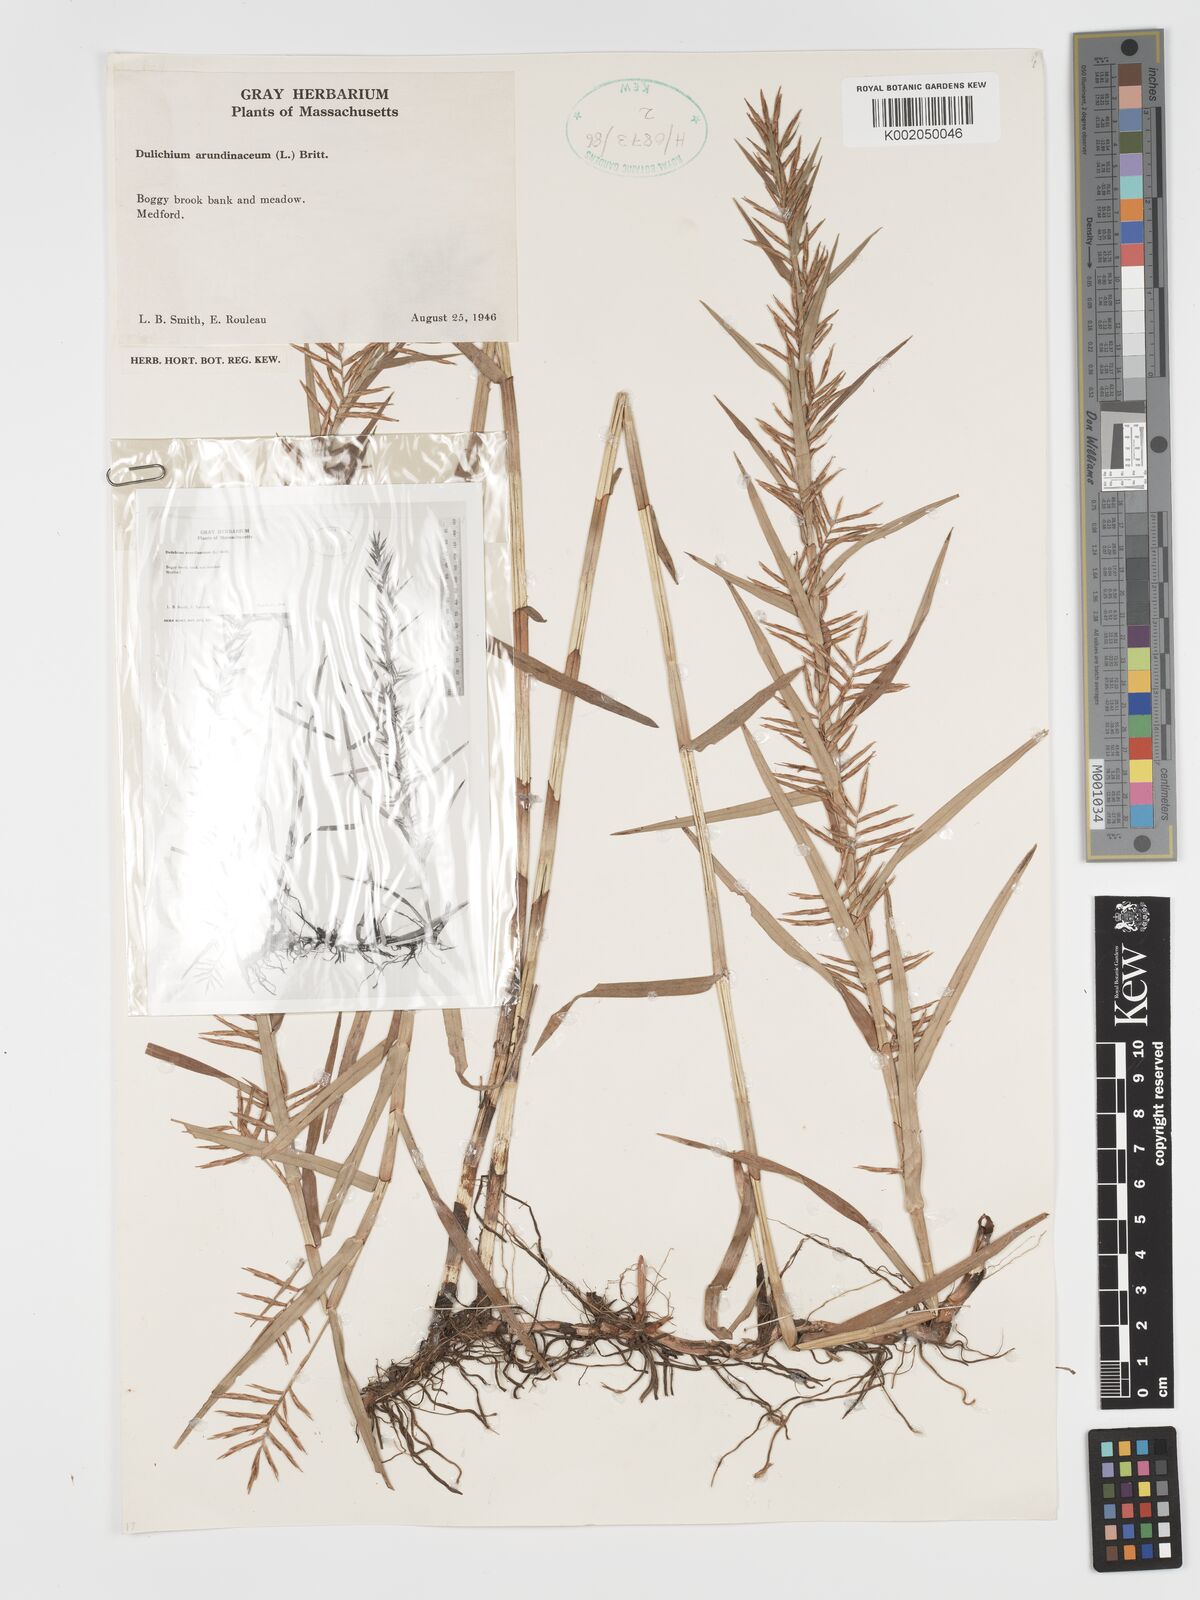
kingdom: Plantae
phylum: Tracheophyta
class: Liliopsida
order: Poales
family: Cyperaceae
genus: Dulichium
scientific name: Dulichium arundinaceum
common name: Three-way sedge
